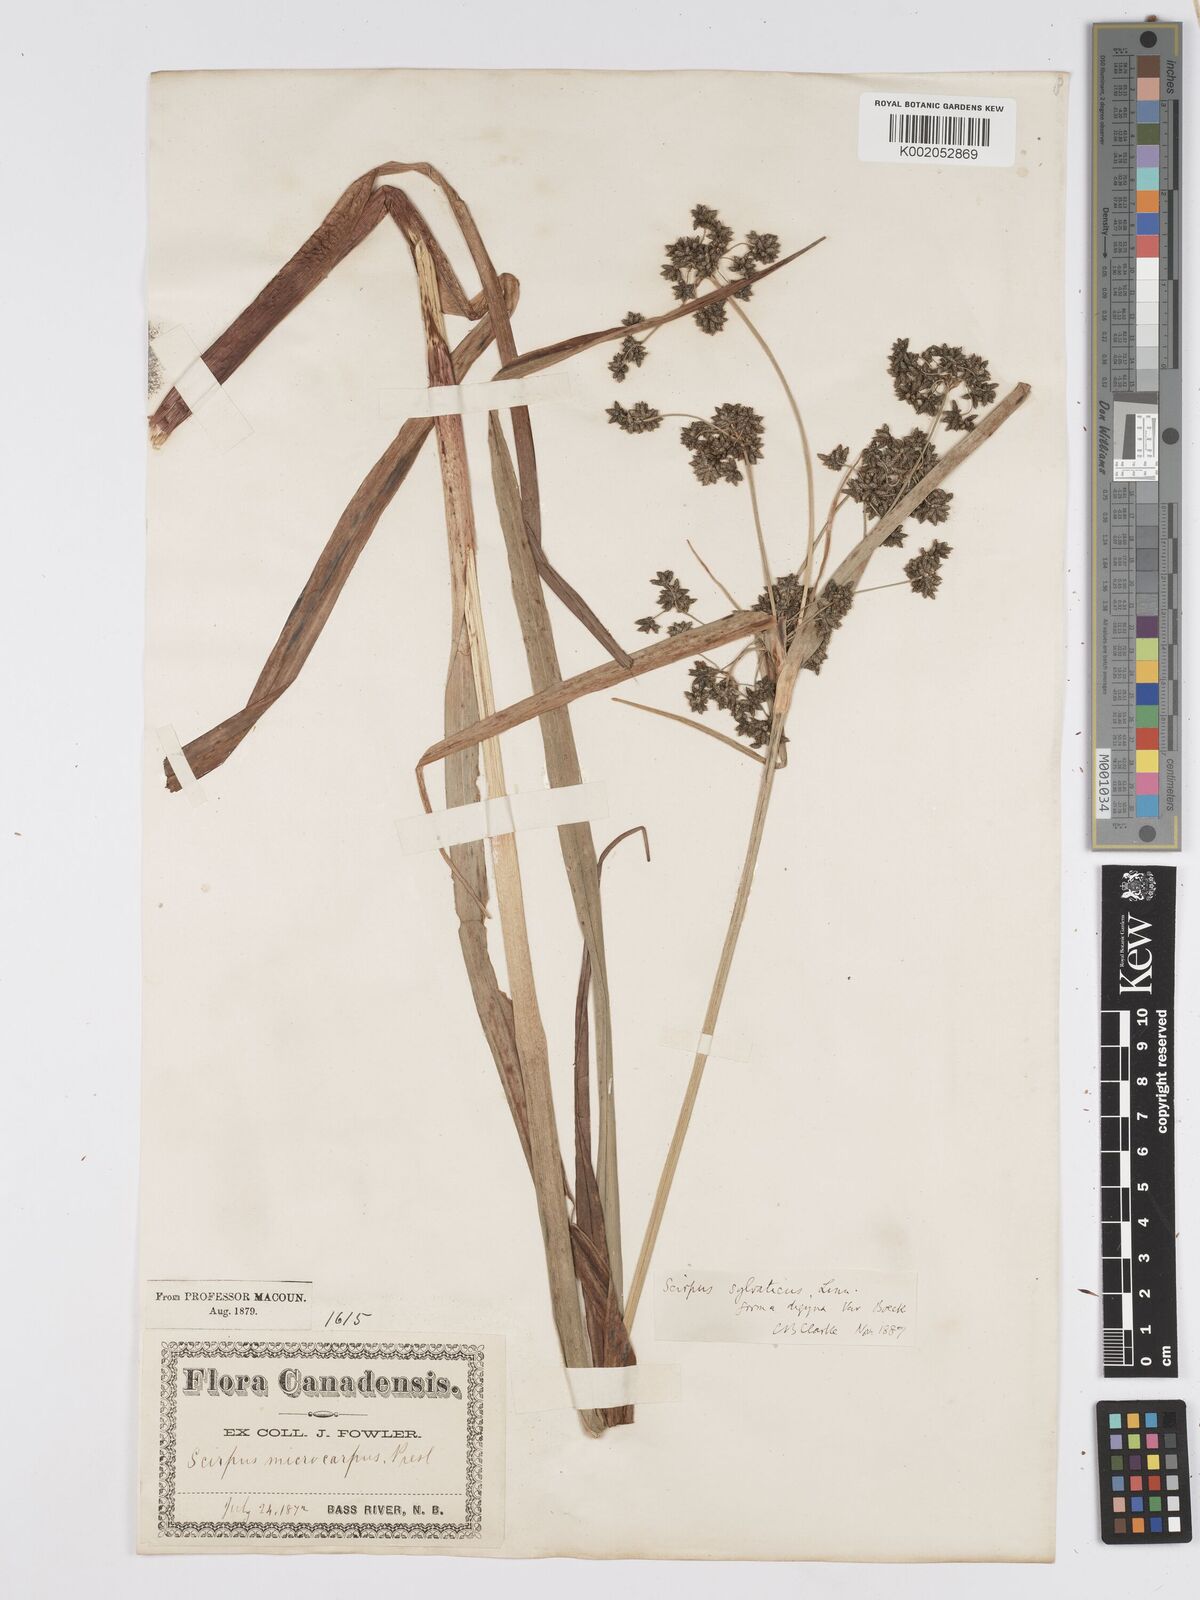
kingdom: Plantae
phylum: Tracheophyta
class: Liliopsida
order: Poales
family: Cyperaceae
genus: Scirpus
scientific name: Scirpus sylvaticus
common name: Wood club-rush
